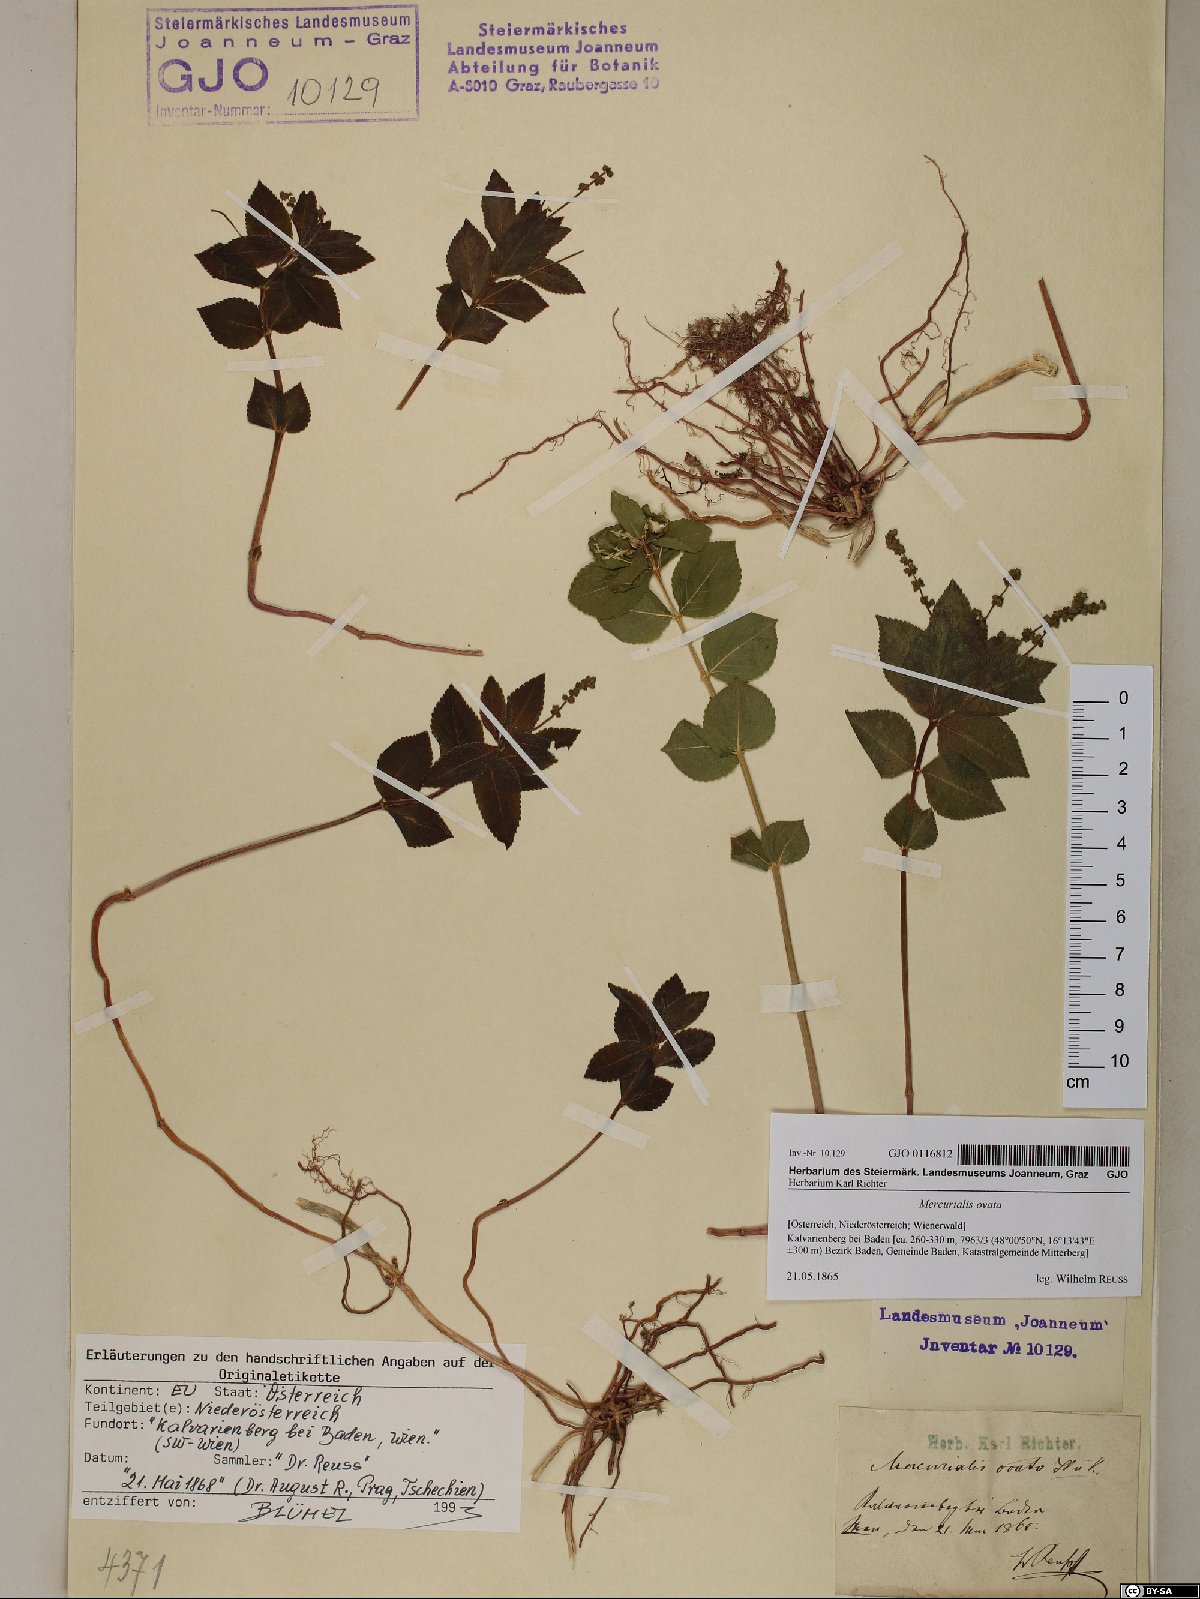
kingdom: Plantae
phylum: Tracheophyta
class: Magnoliopsida
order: Malpighiales
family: Euphorbiaceae
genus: Mercurialis
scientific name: Mercurialis ovata
